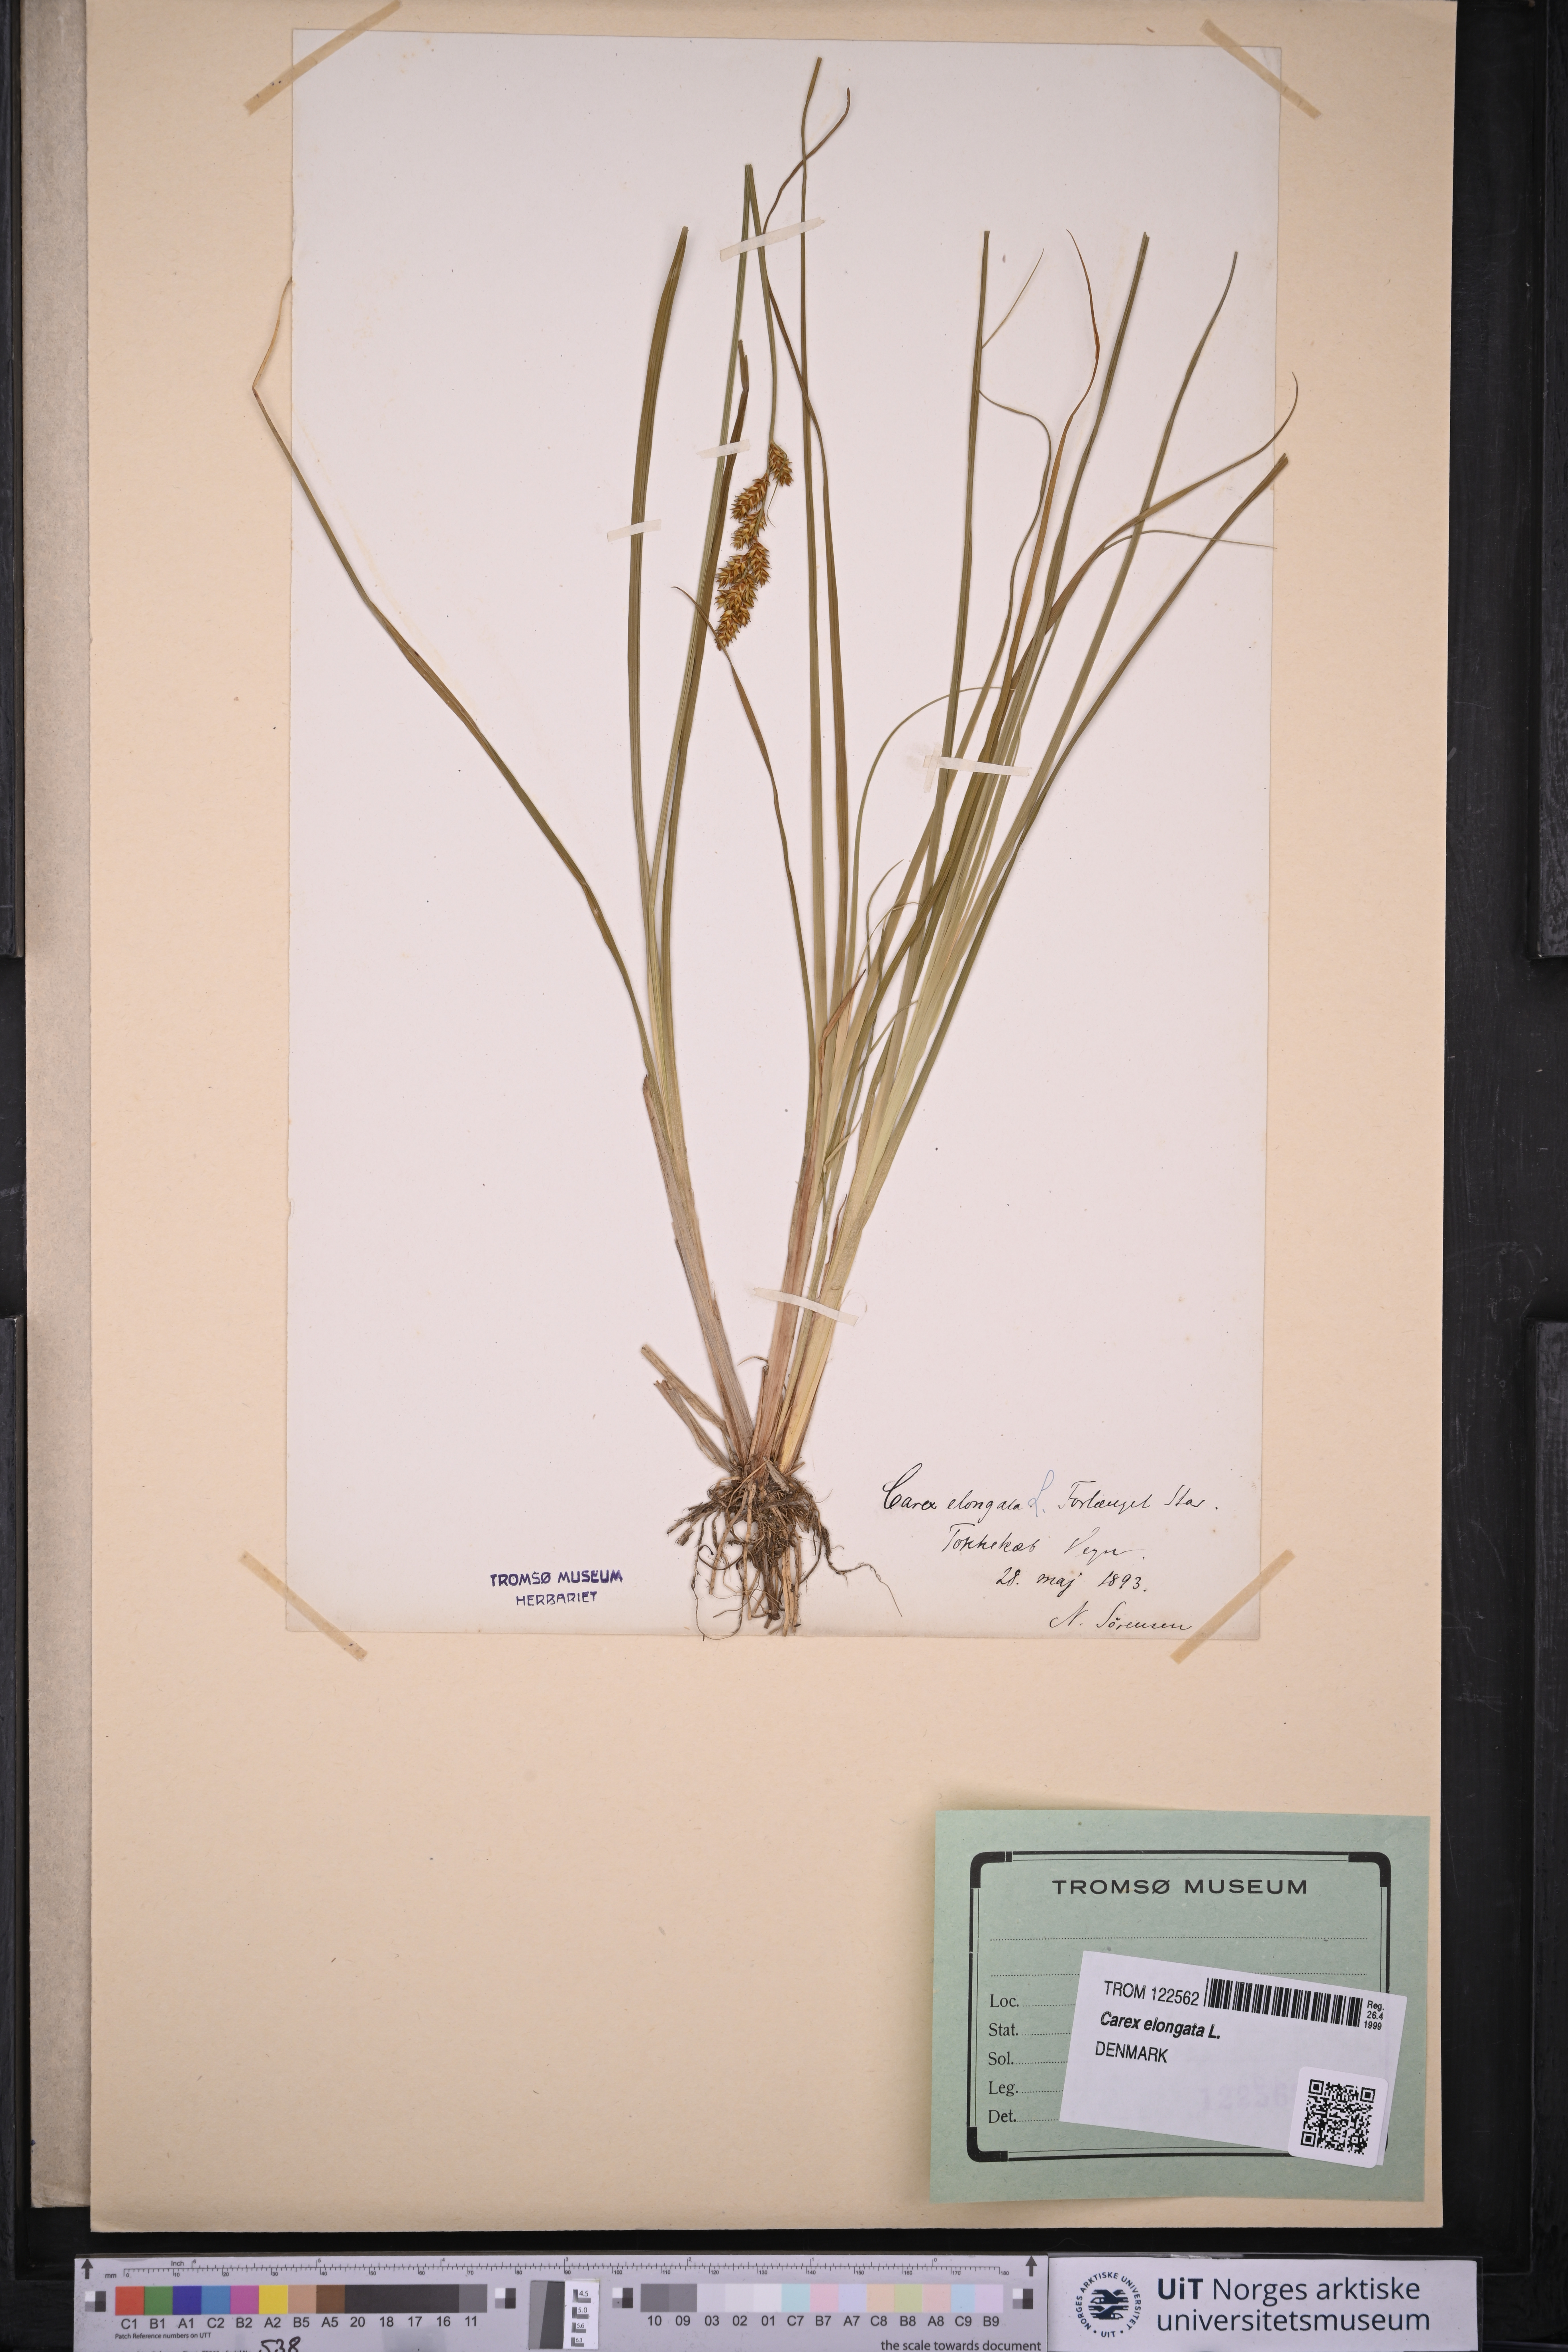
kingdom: Plantae
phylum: Tracheophyta
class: Liliopsida
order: Poales
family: Cyperaceae
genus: Carex
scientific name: Carex elongata
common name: Elongated sedge
